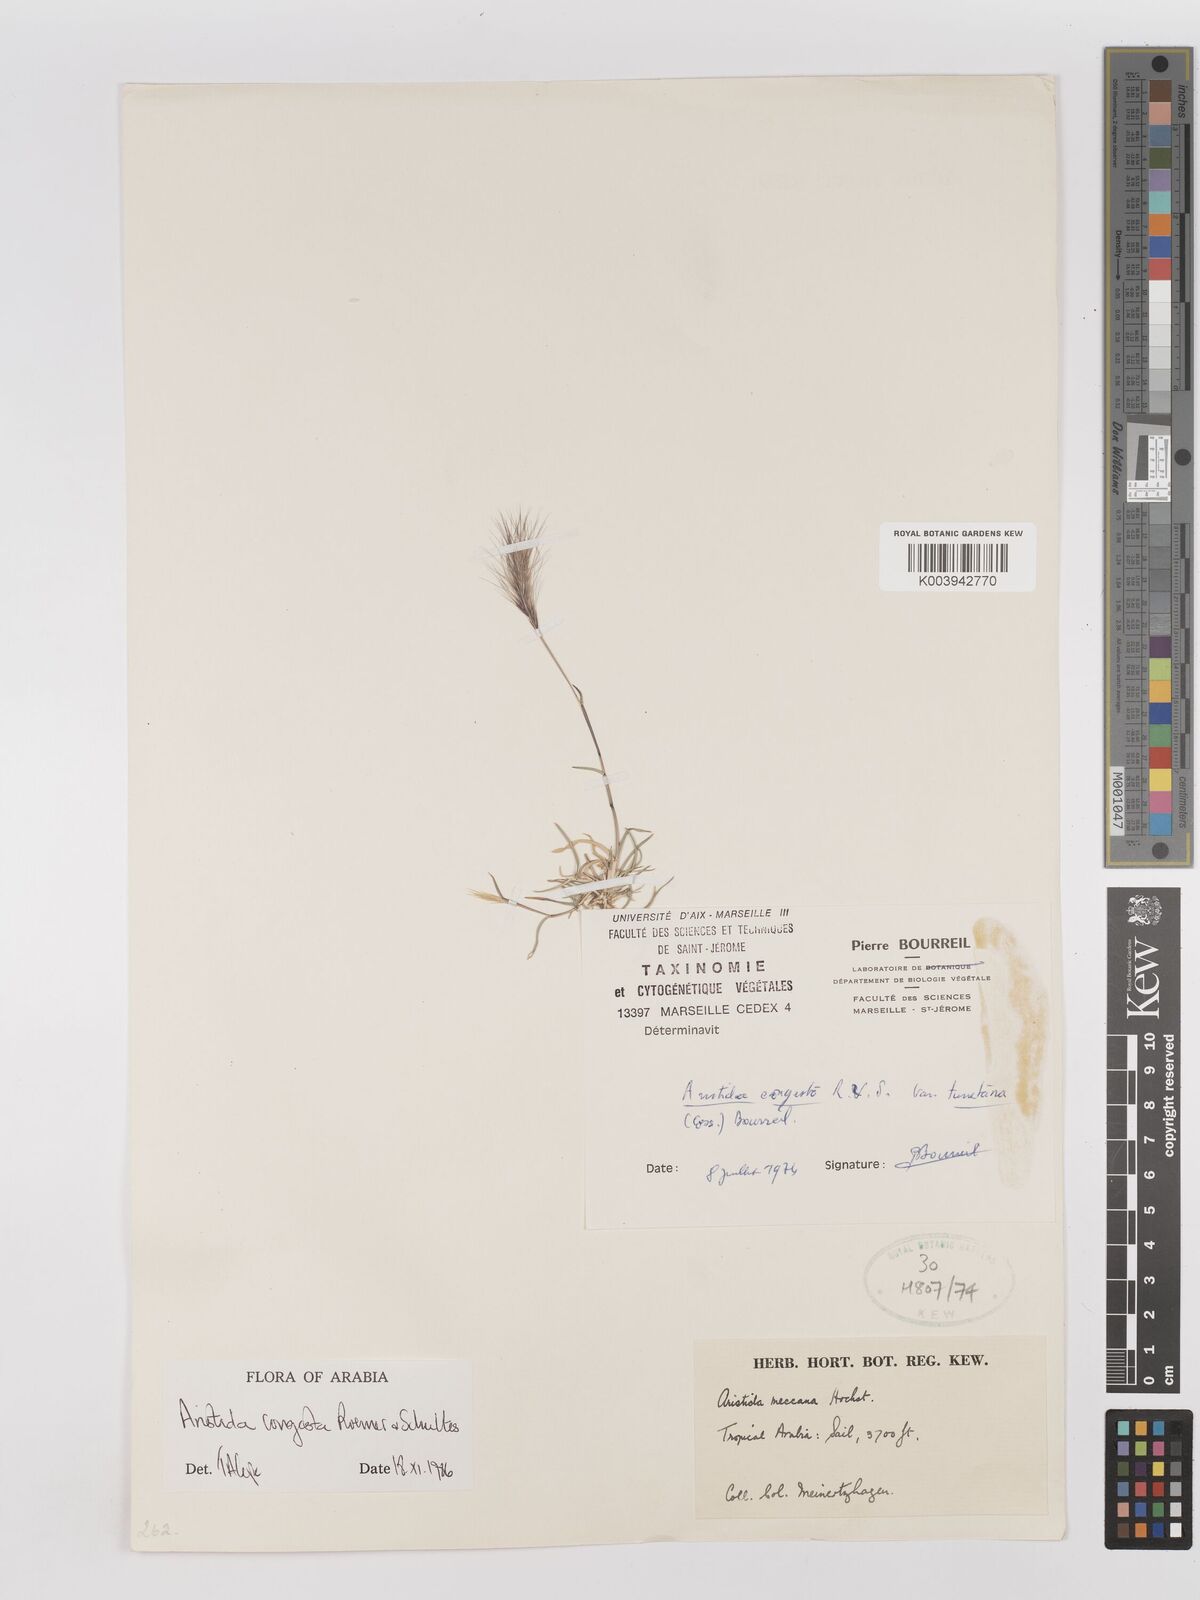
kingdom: Plantae
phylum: Tracheophyta
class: Liliopsida
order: Poales
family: Poaceae
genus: Aristida
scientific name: Aristida congesta
